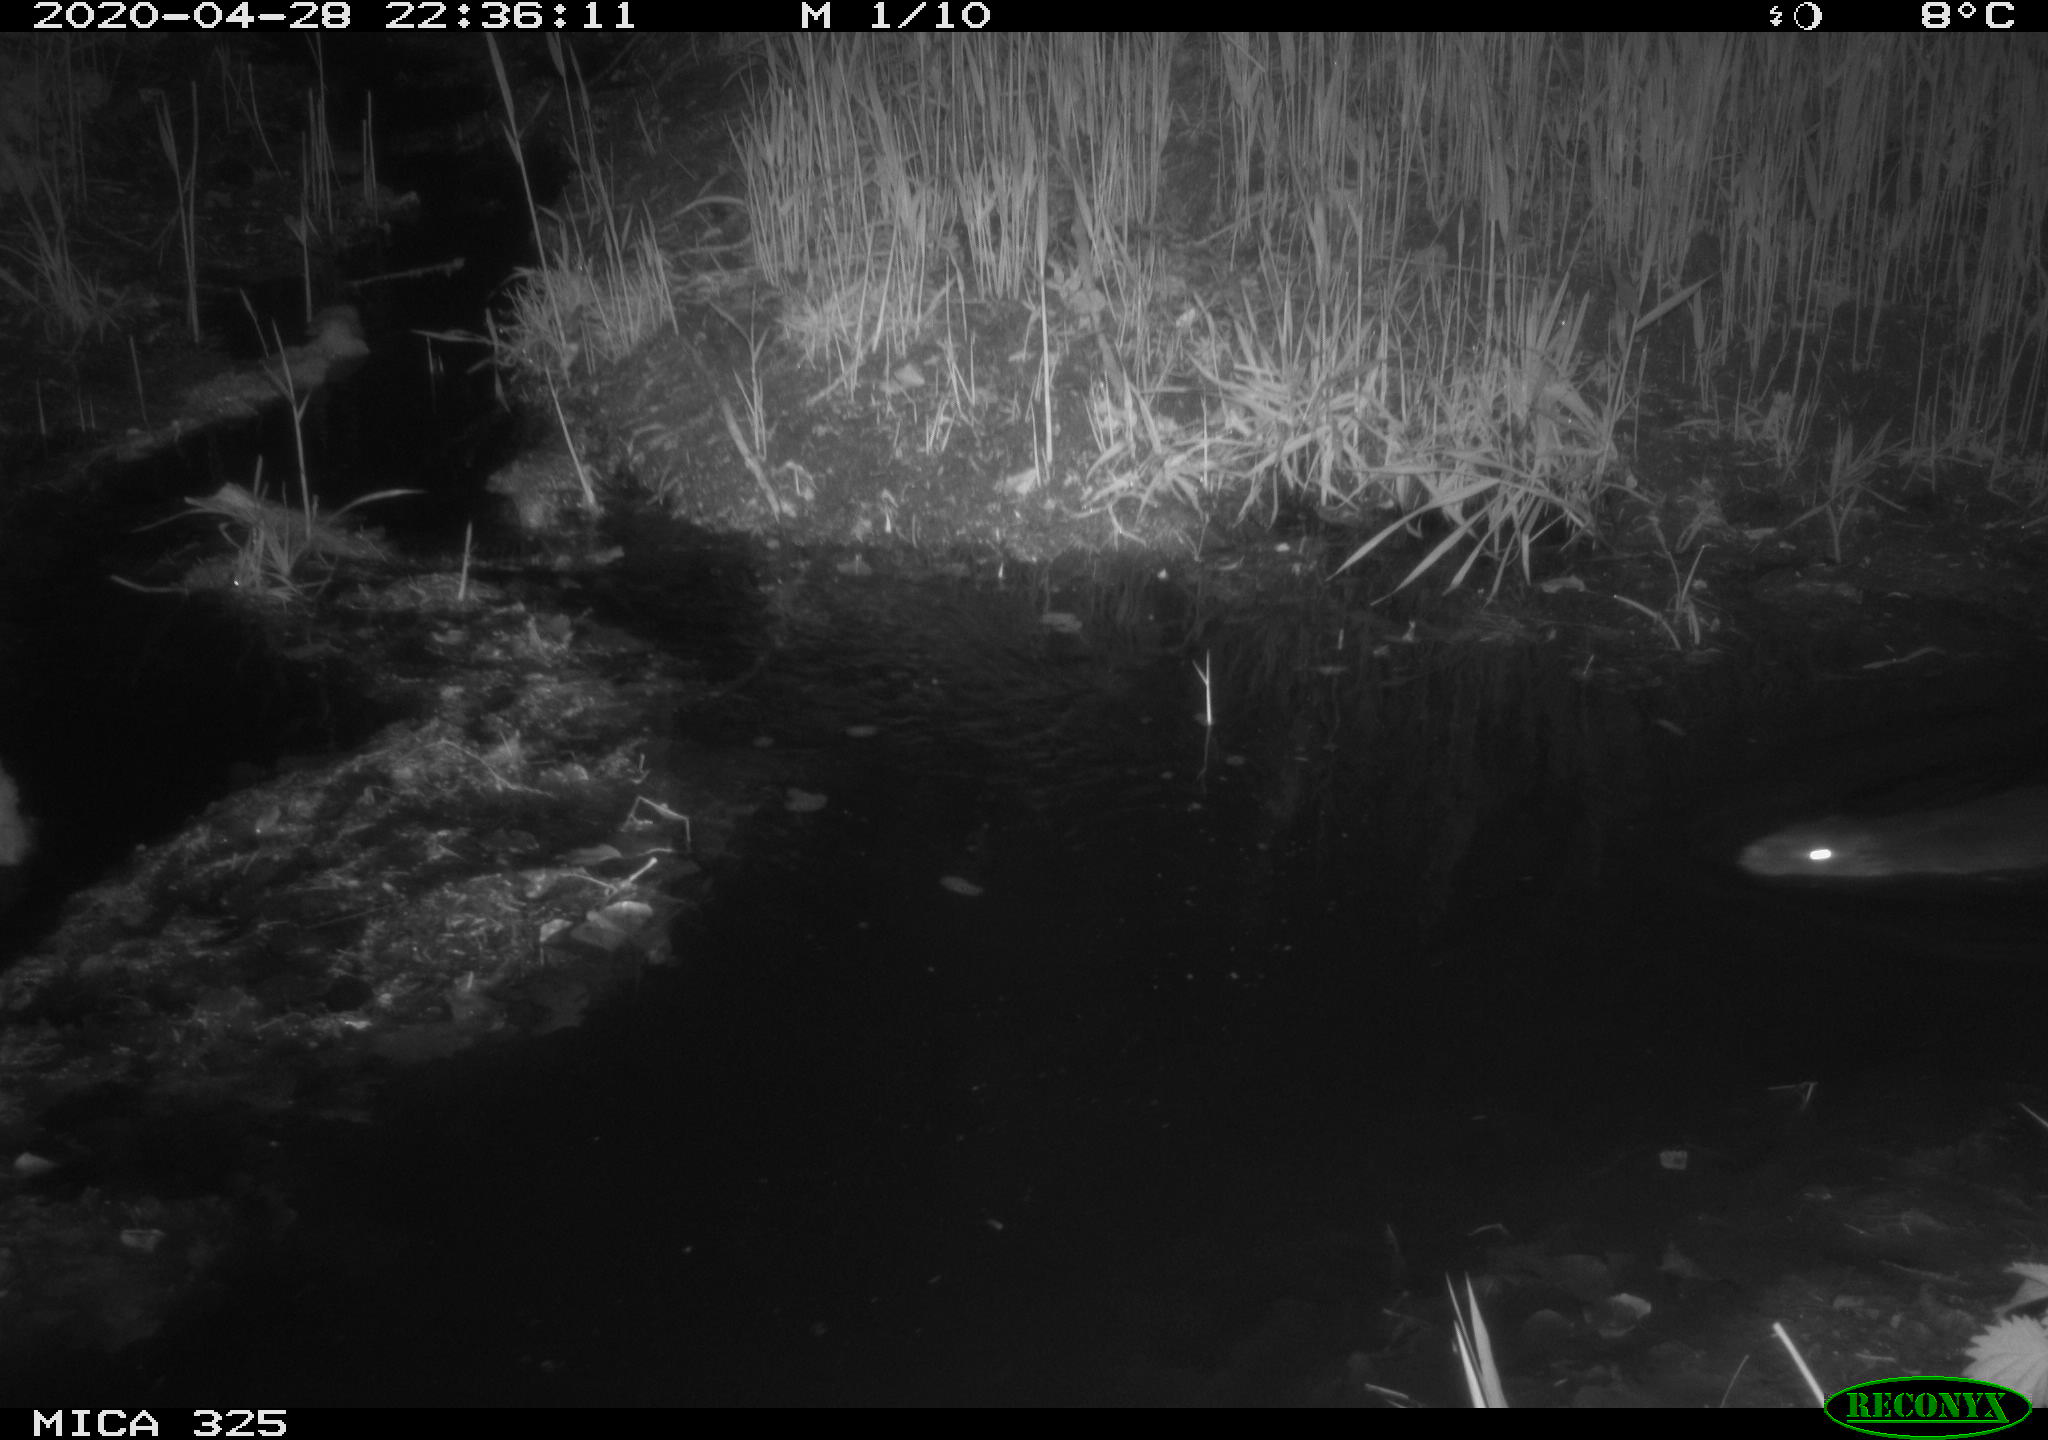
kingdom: Animalia
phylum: Chordata
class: Mammalia
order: Rodentia
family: Myocastoridae
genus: Myocastor
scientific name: Myocastor coypus
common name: Coypu
